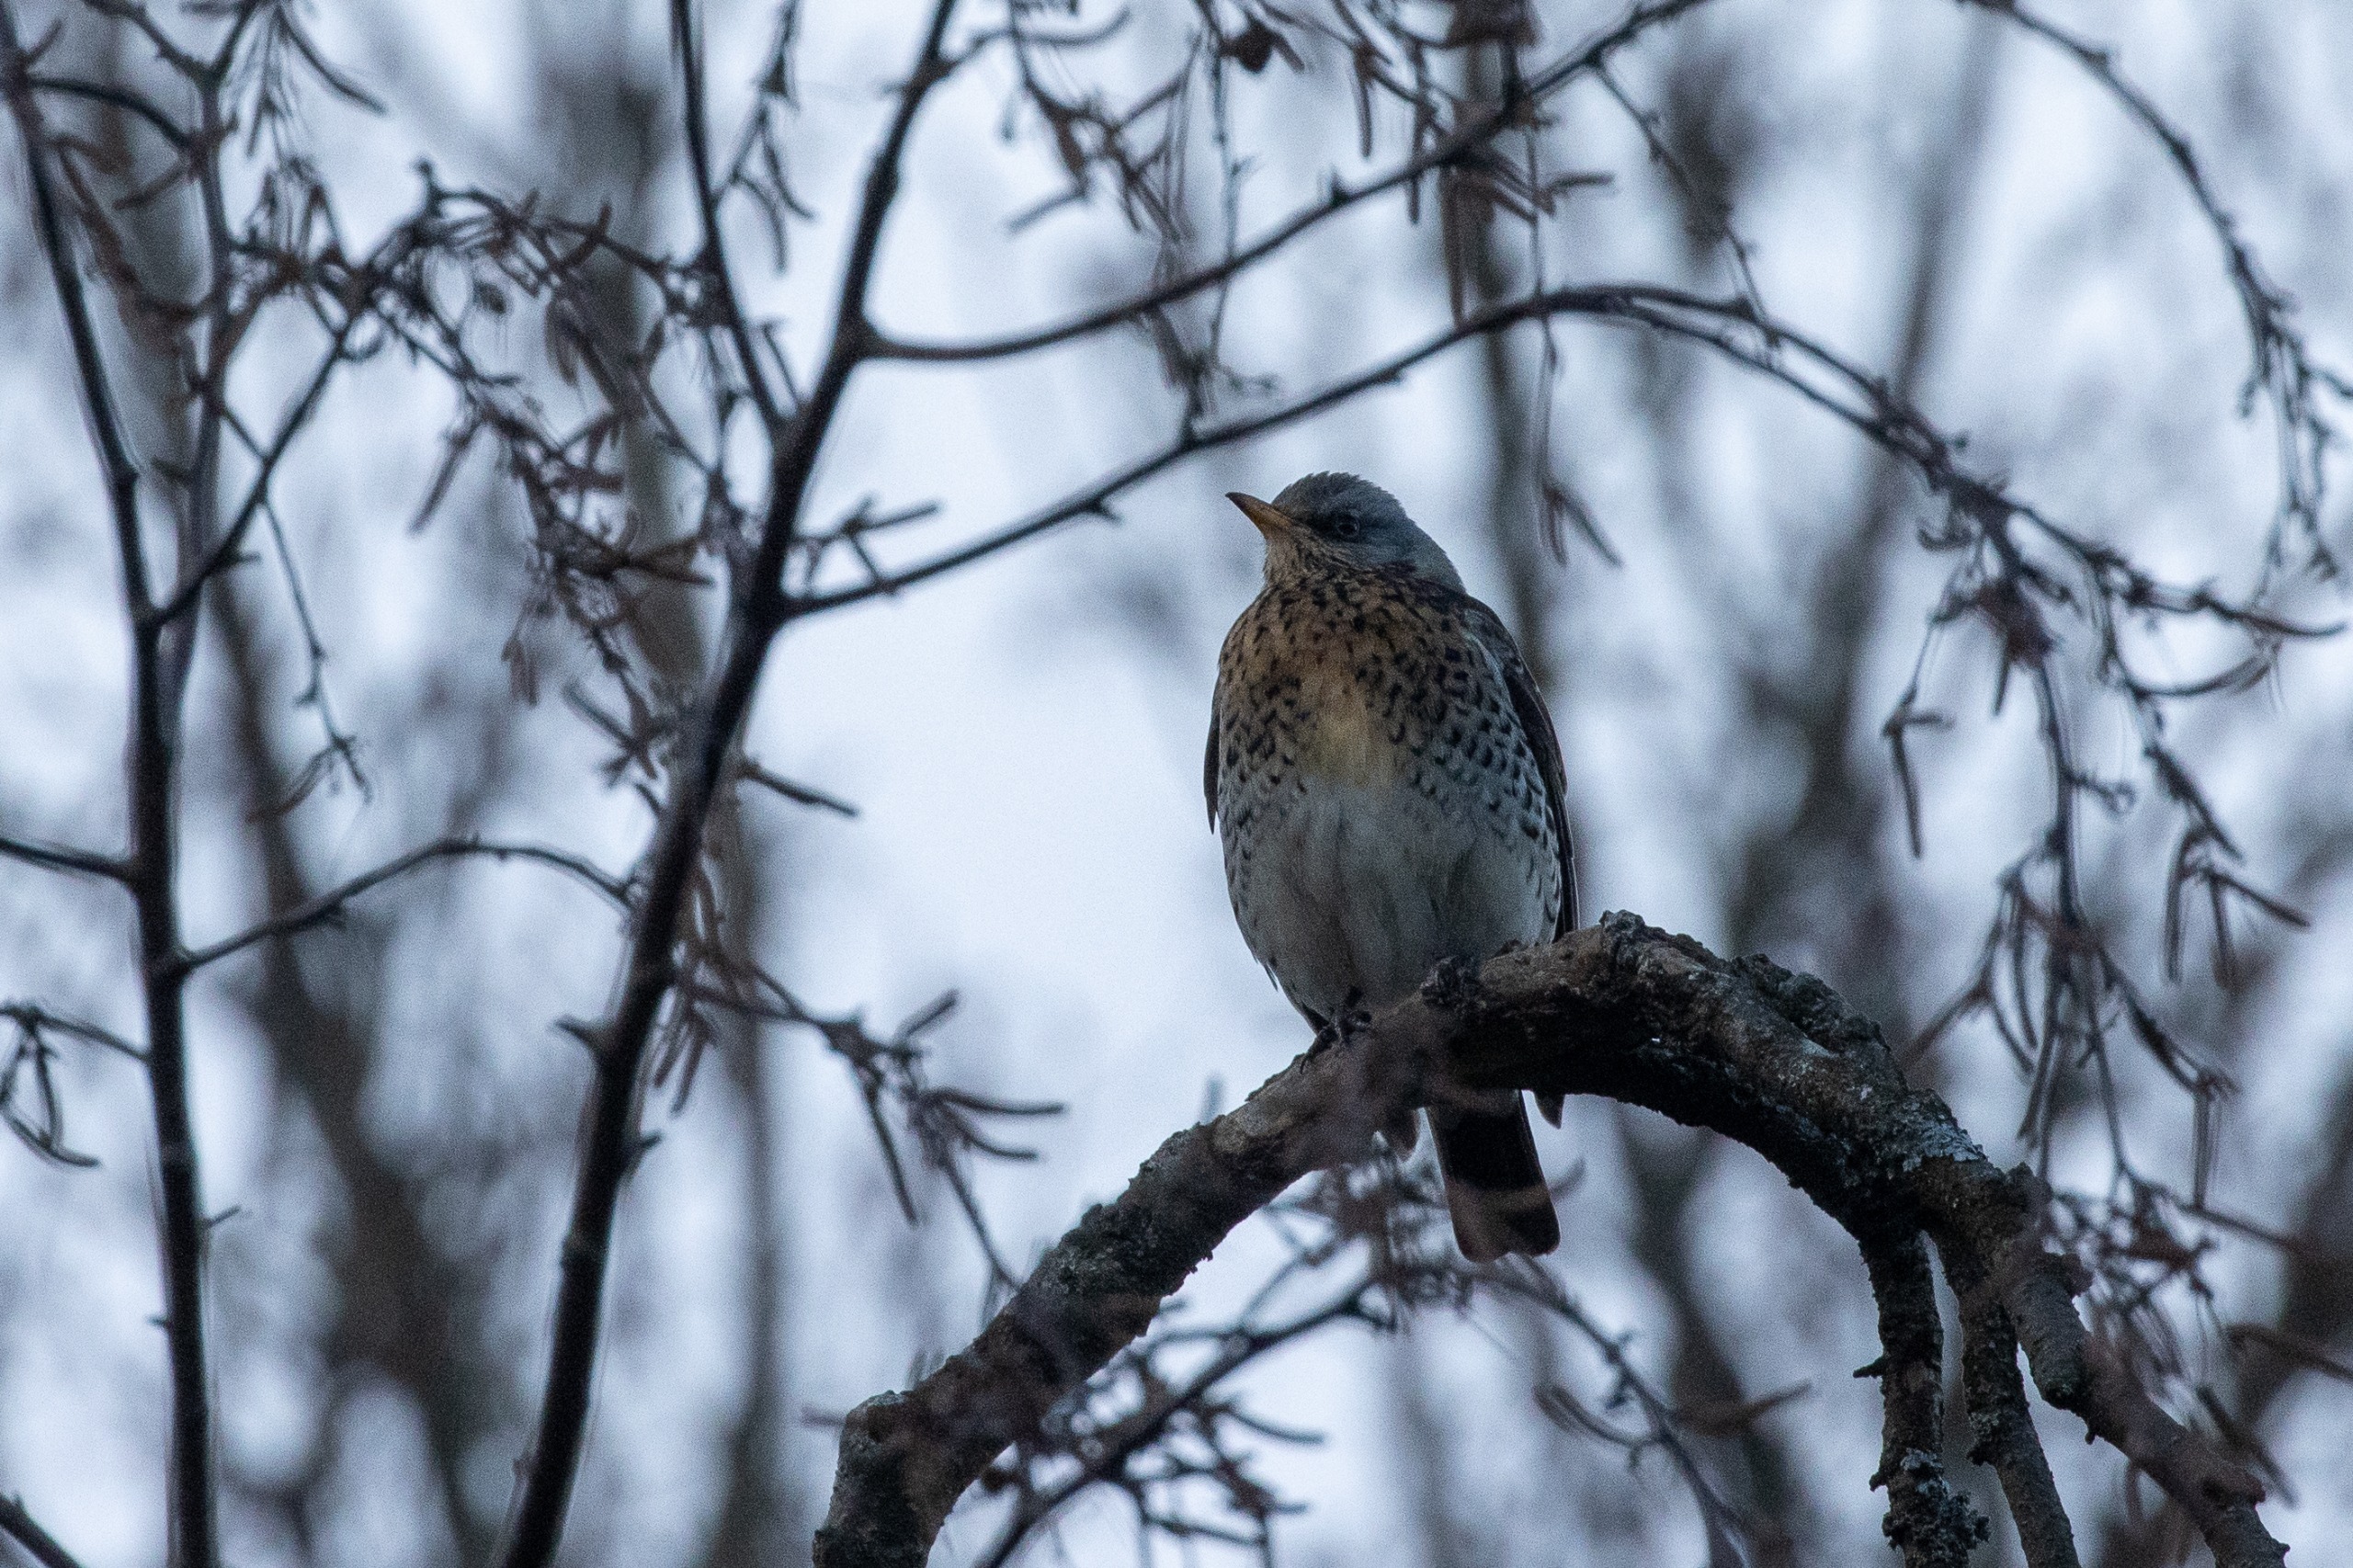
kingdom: Animalia
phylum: Chordata
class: Aves
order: Passeriformes
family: Turdidae
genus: Turdus
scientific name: Turdus pilaris
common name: Sjagger
